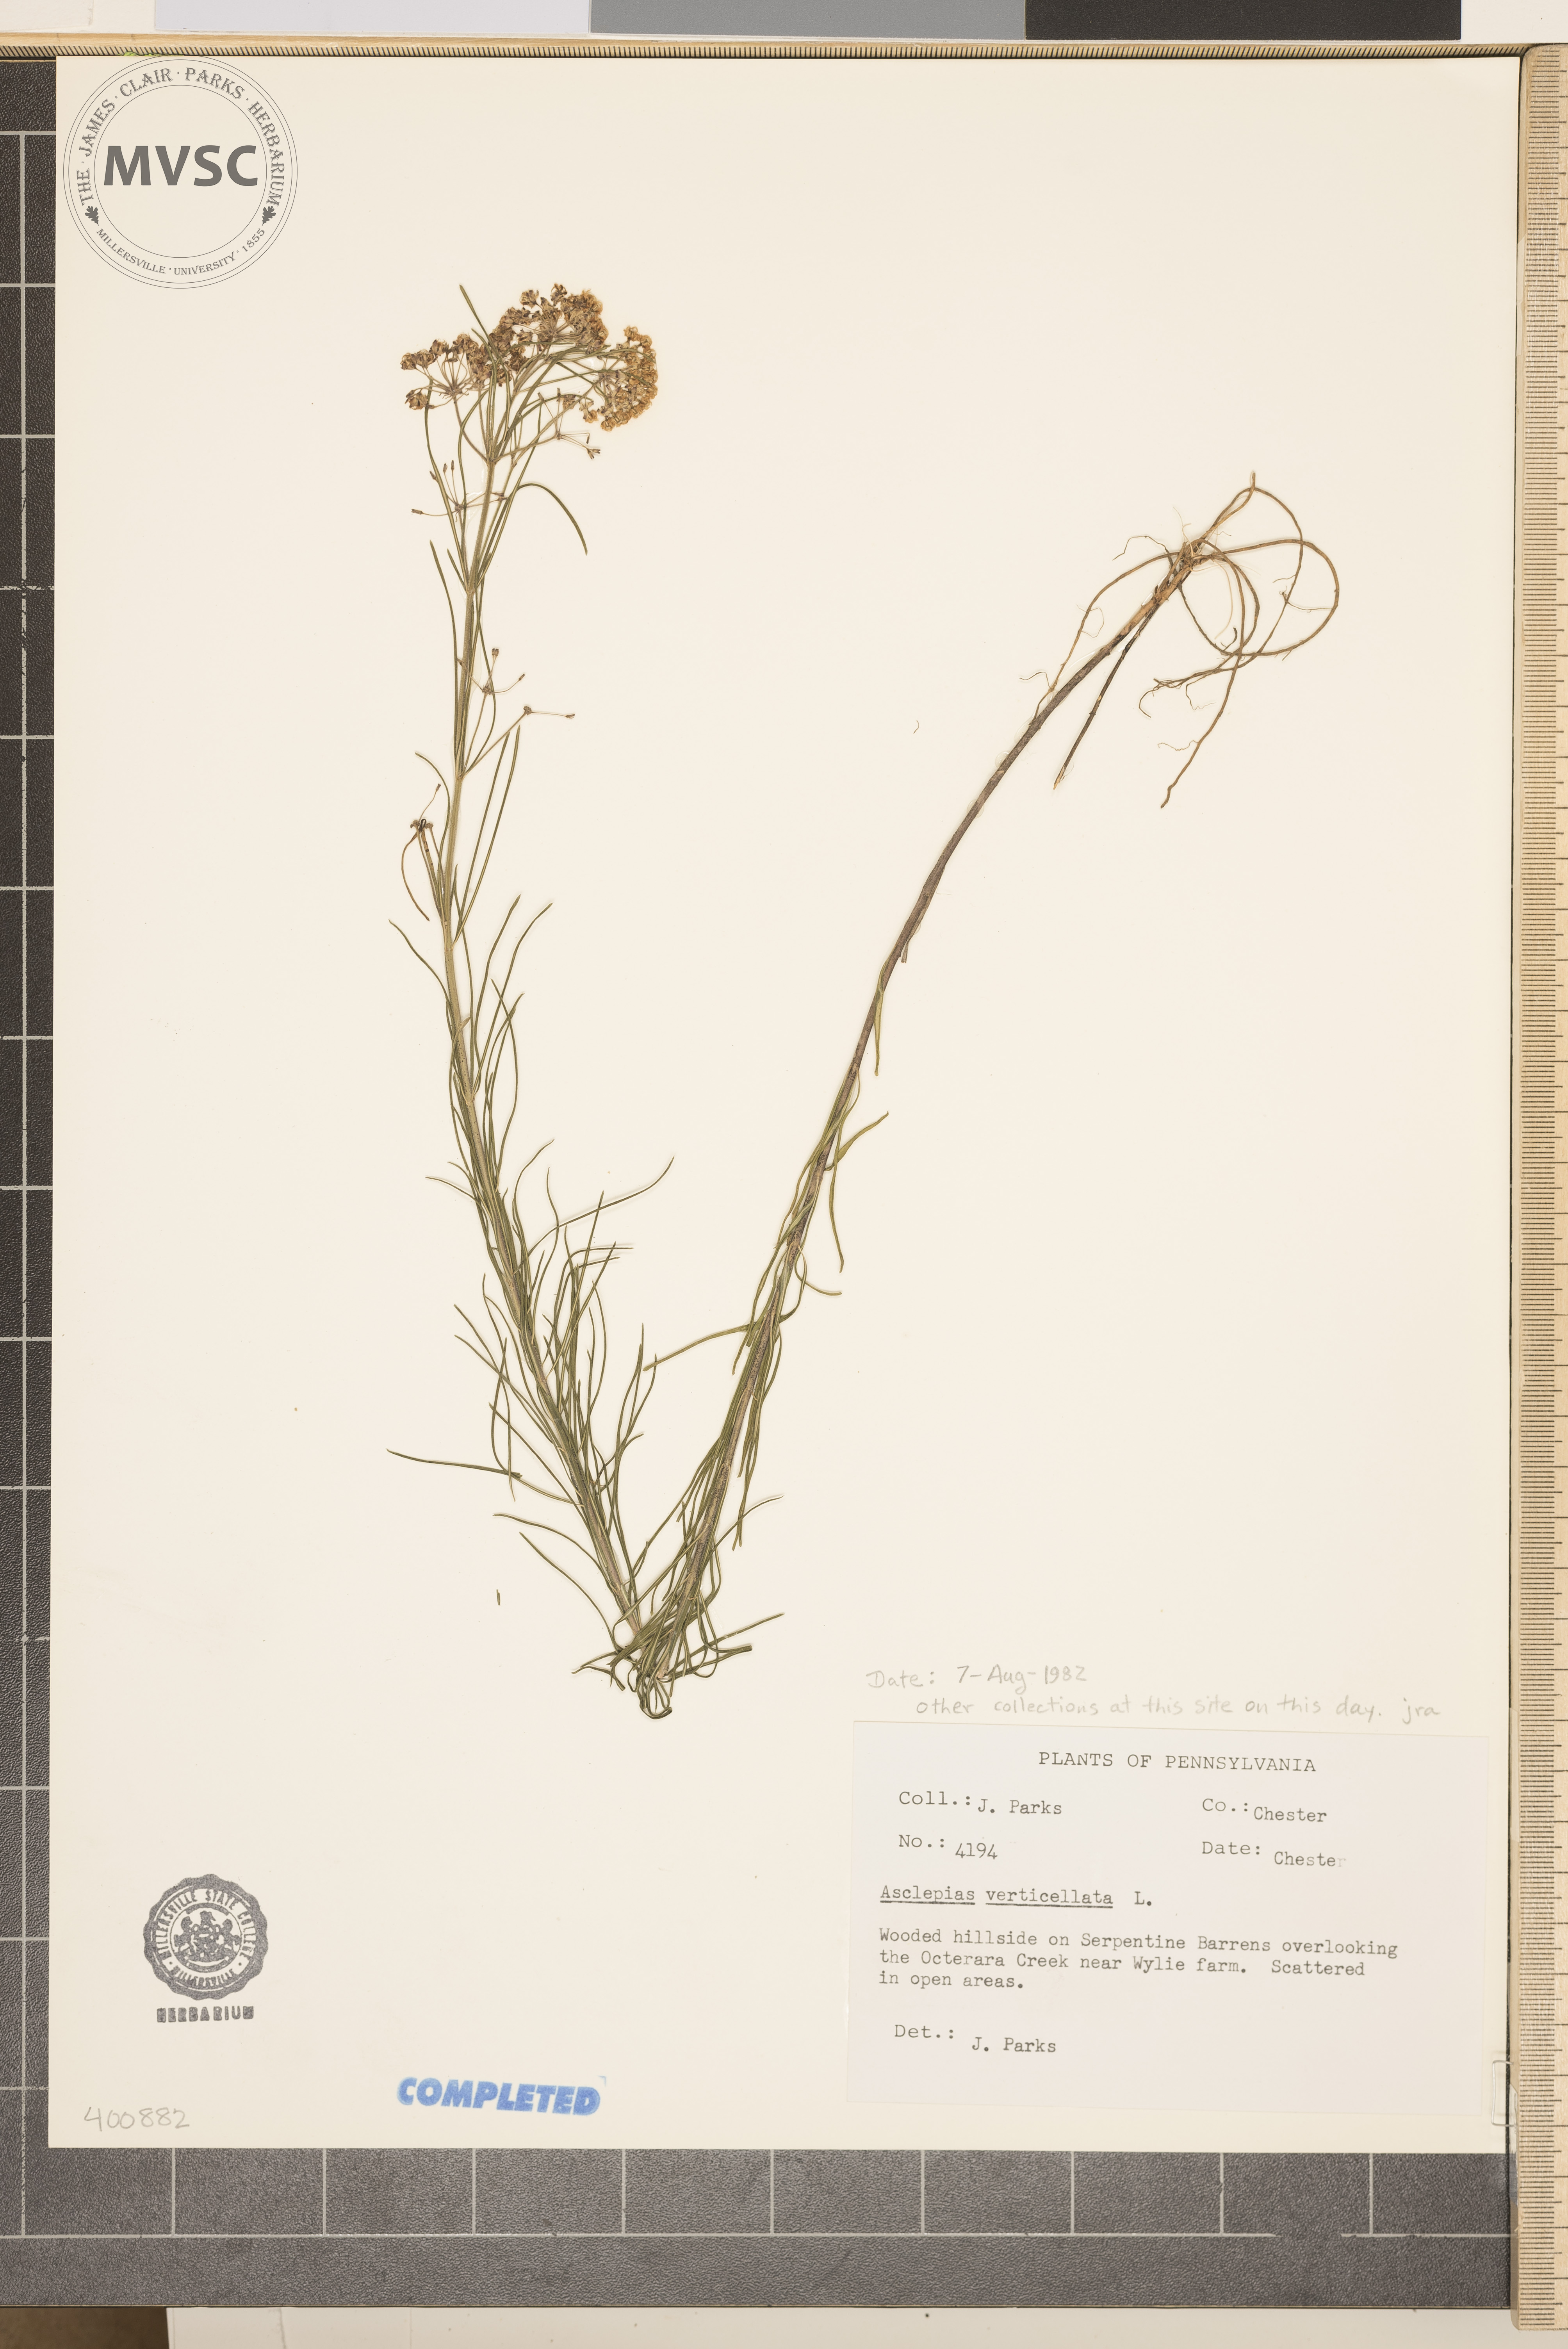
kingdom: Plantae
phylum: Tracheophyta
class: Magnoliopsida
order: Gentianales
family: Apocynaceae
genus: Asclepias
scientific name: Asclepias verticillata
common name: Whorled milkweed
